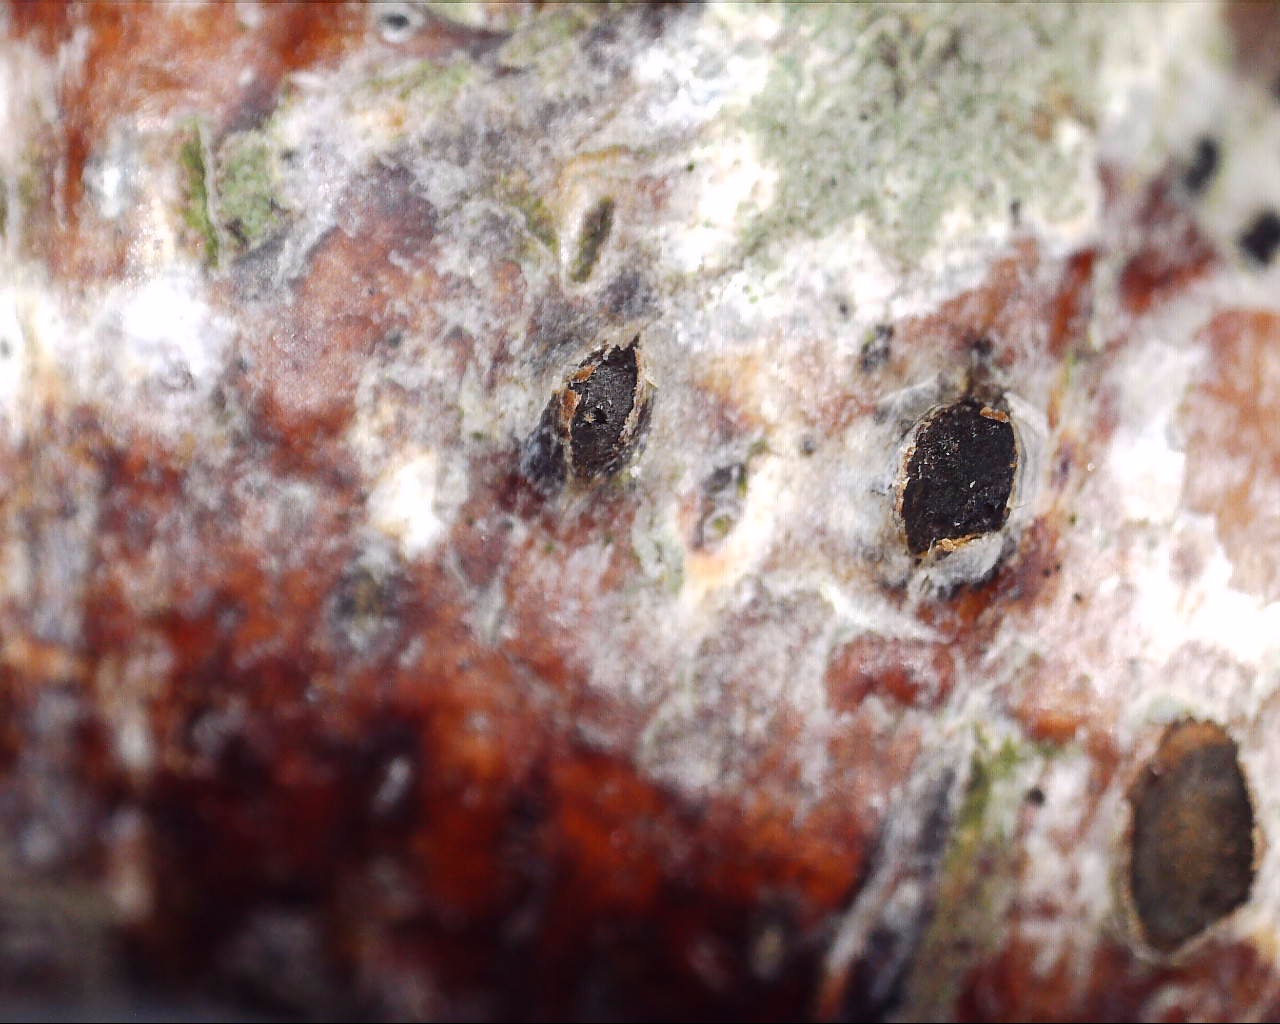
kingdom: Fungi
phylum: Ascomycota
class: Sordariomycetes
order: Diaporthales
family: Coryneaceae
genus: Coryneum
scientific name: Coryneum lanciforme
